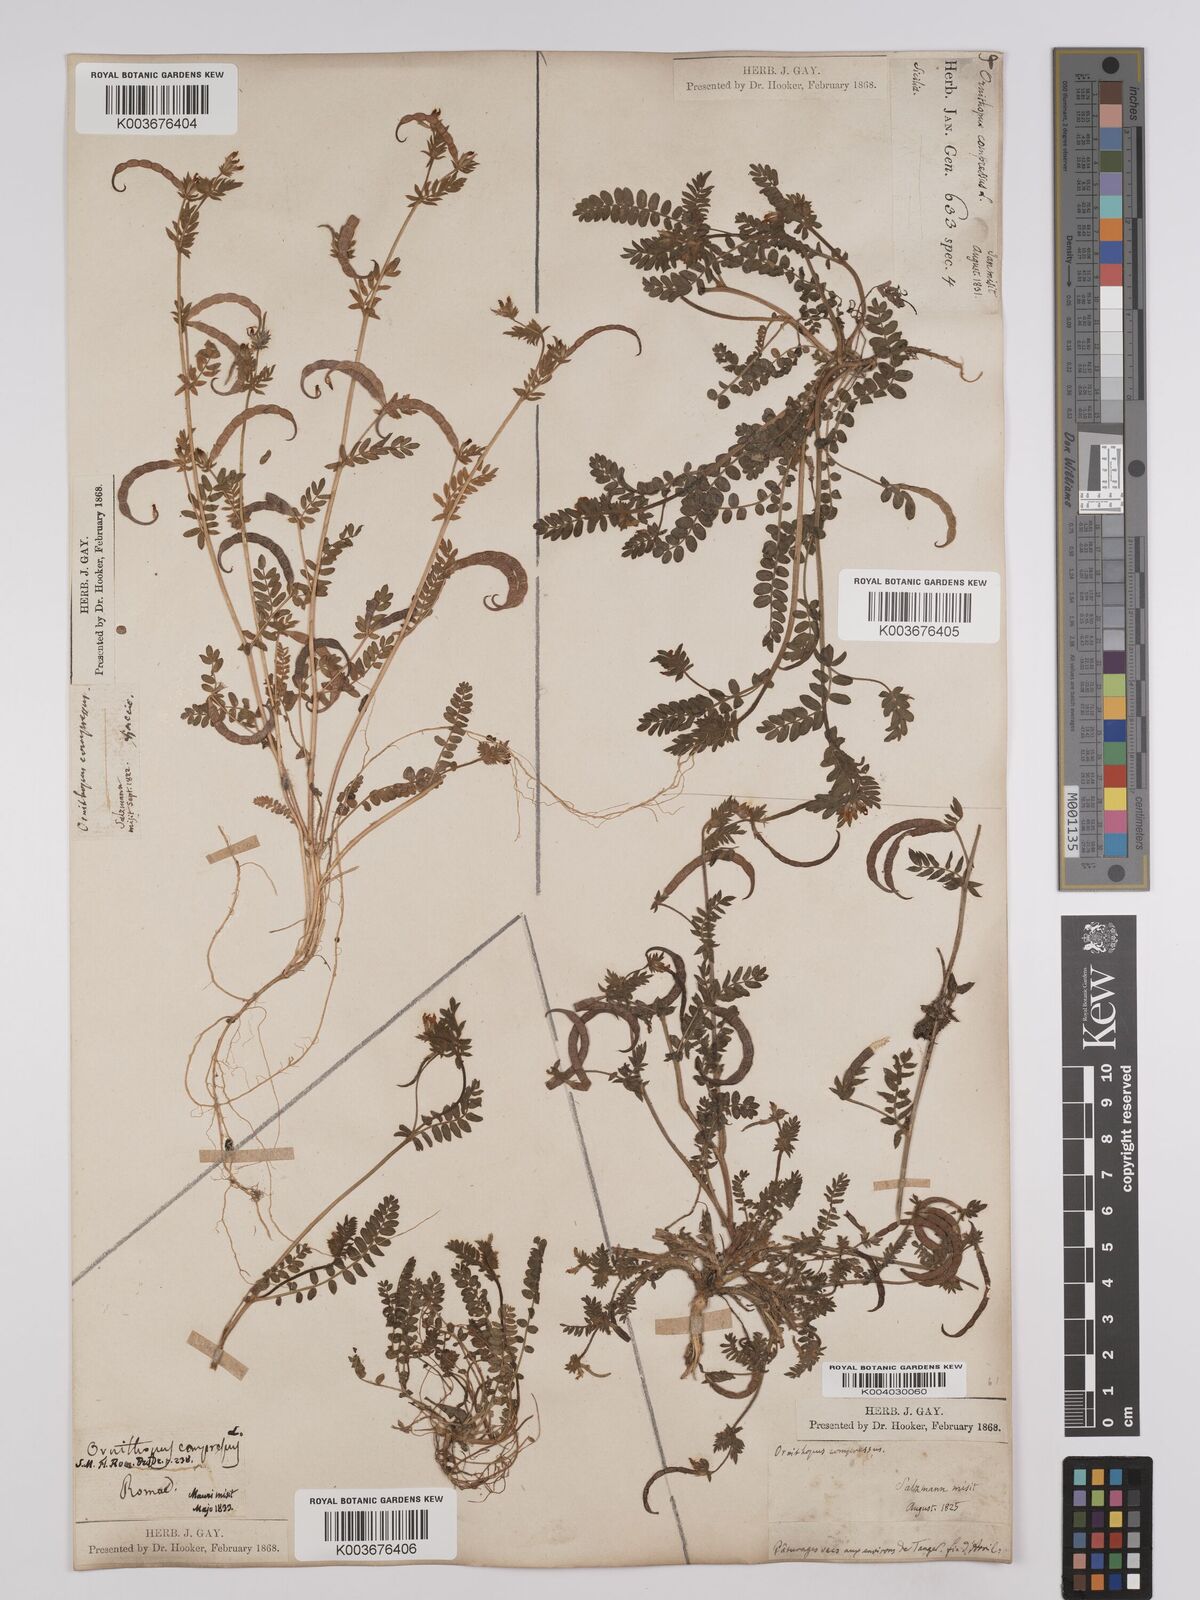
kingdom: Plantae
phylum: Tracheophyta
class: Magnoliopsida
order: Fabales
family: Fabaceae
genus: Ornithopus
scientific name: Ornithopus compressus
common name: Yellow serradella
